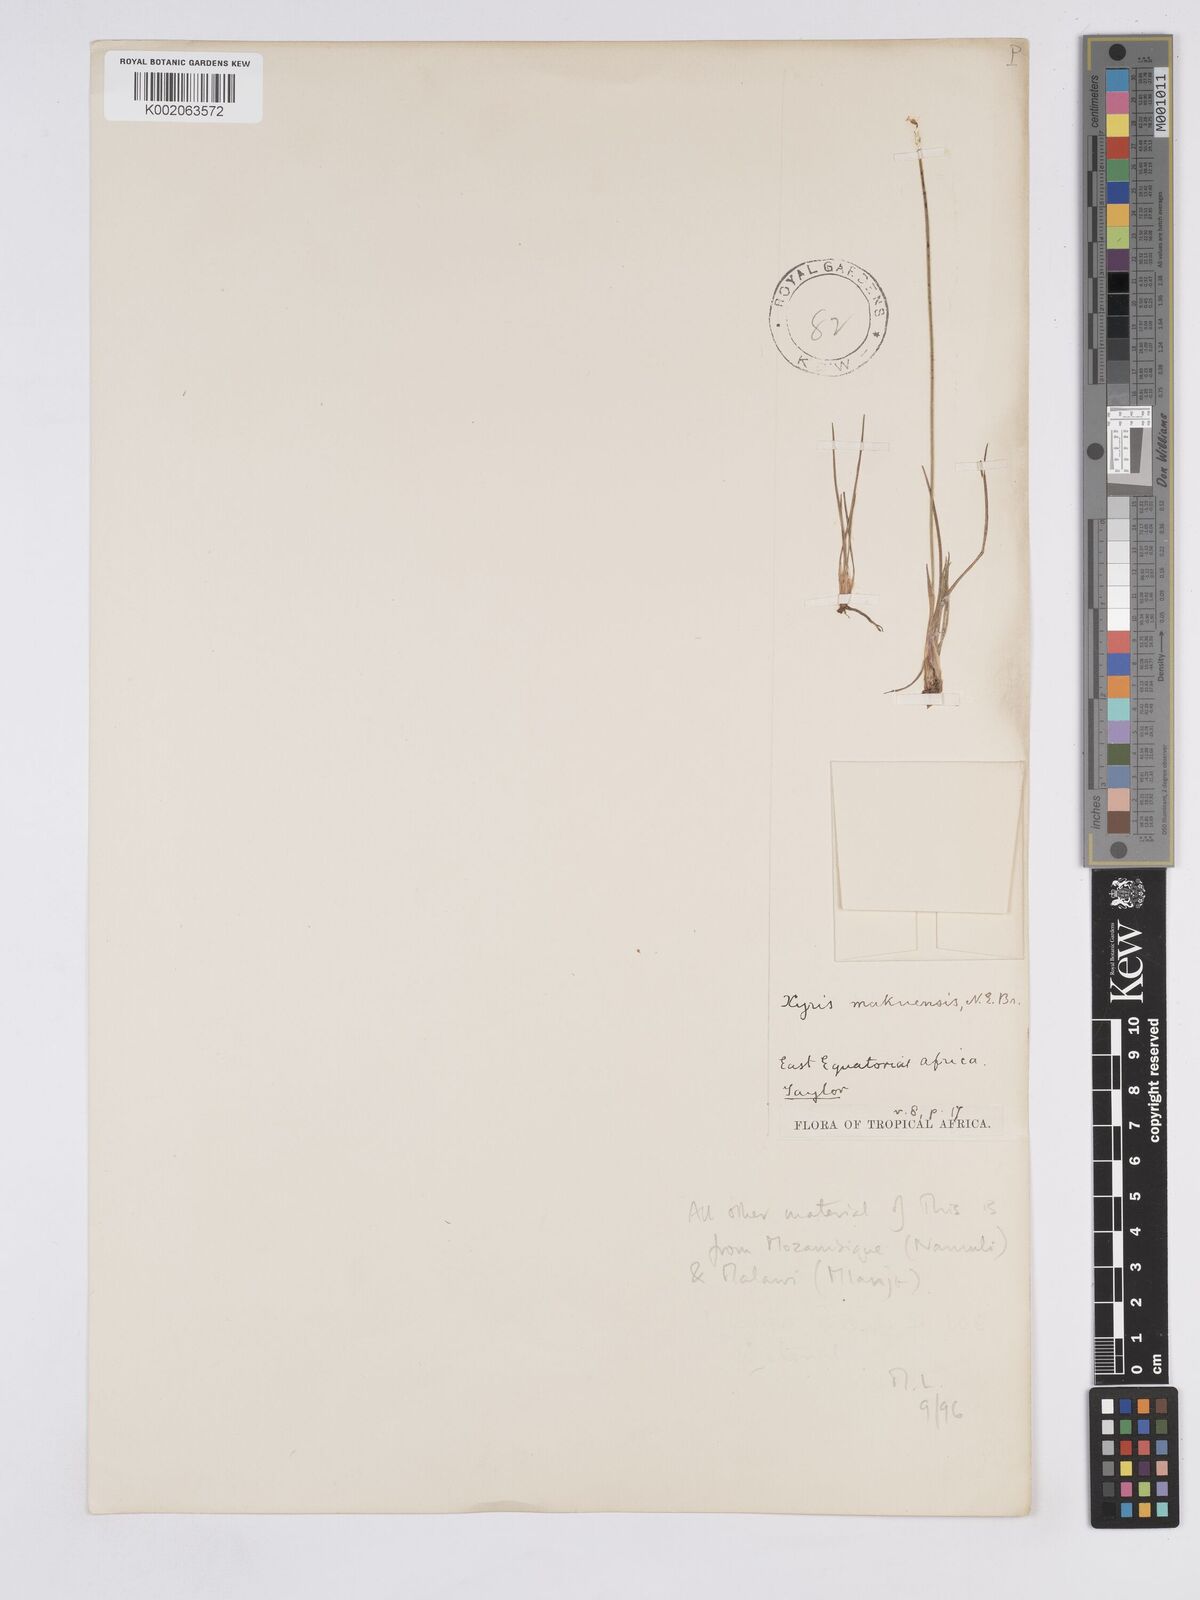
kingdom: Plantae
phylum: Tracheophyta
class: Liliopsida
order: Poales
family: Xyridaceae
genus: Xyris
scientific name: Xyris makuensis
